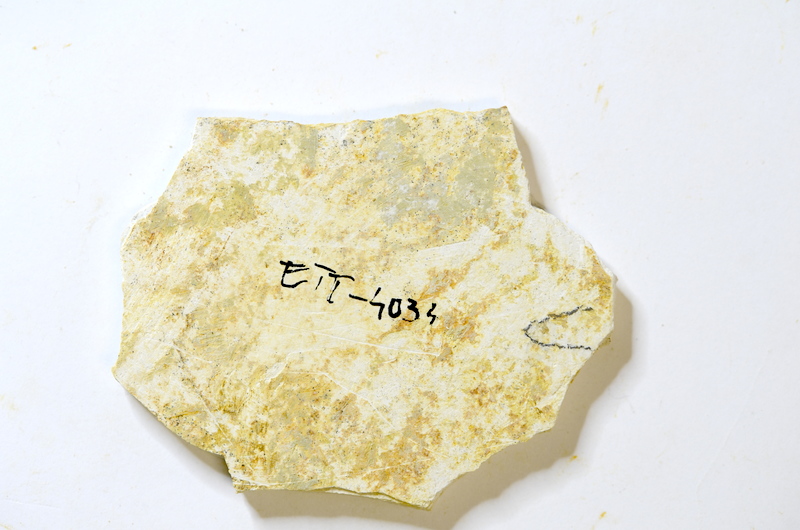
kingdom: Animalia
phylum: Chordata
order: Salmoniformes
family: Orthogonikleithridae
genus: Orthogonikleithrus
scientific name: Orthogonikleithrus hoelli
